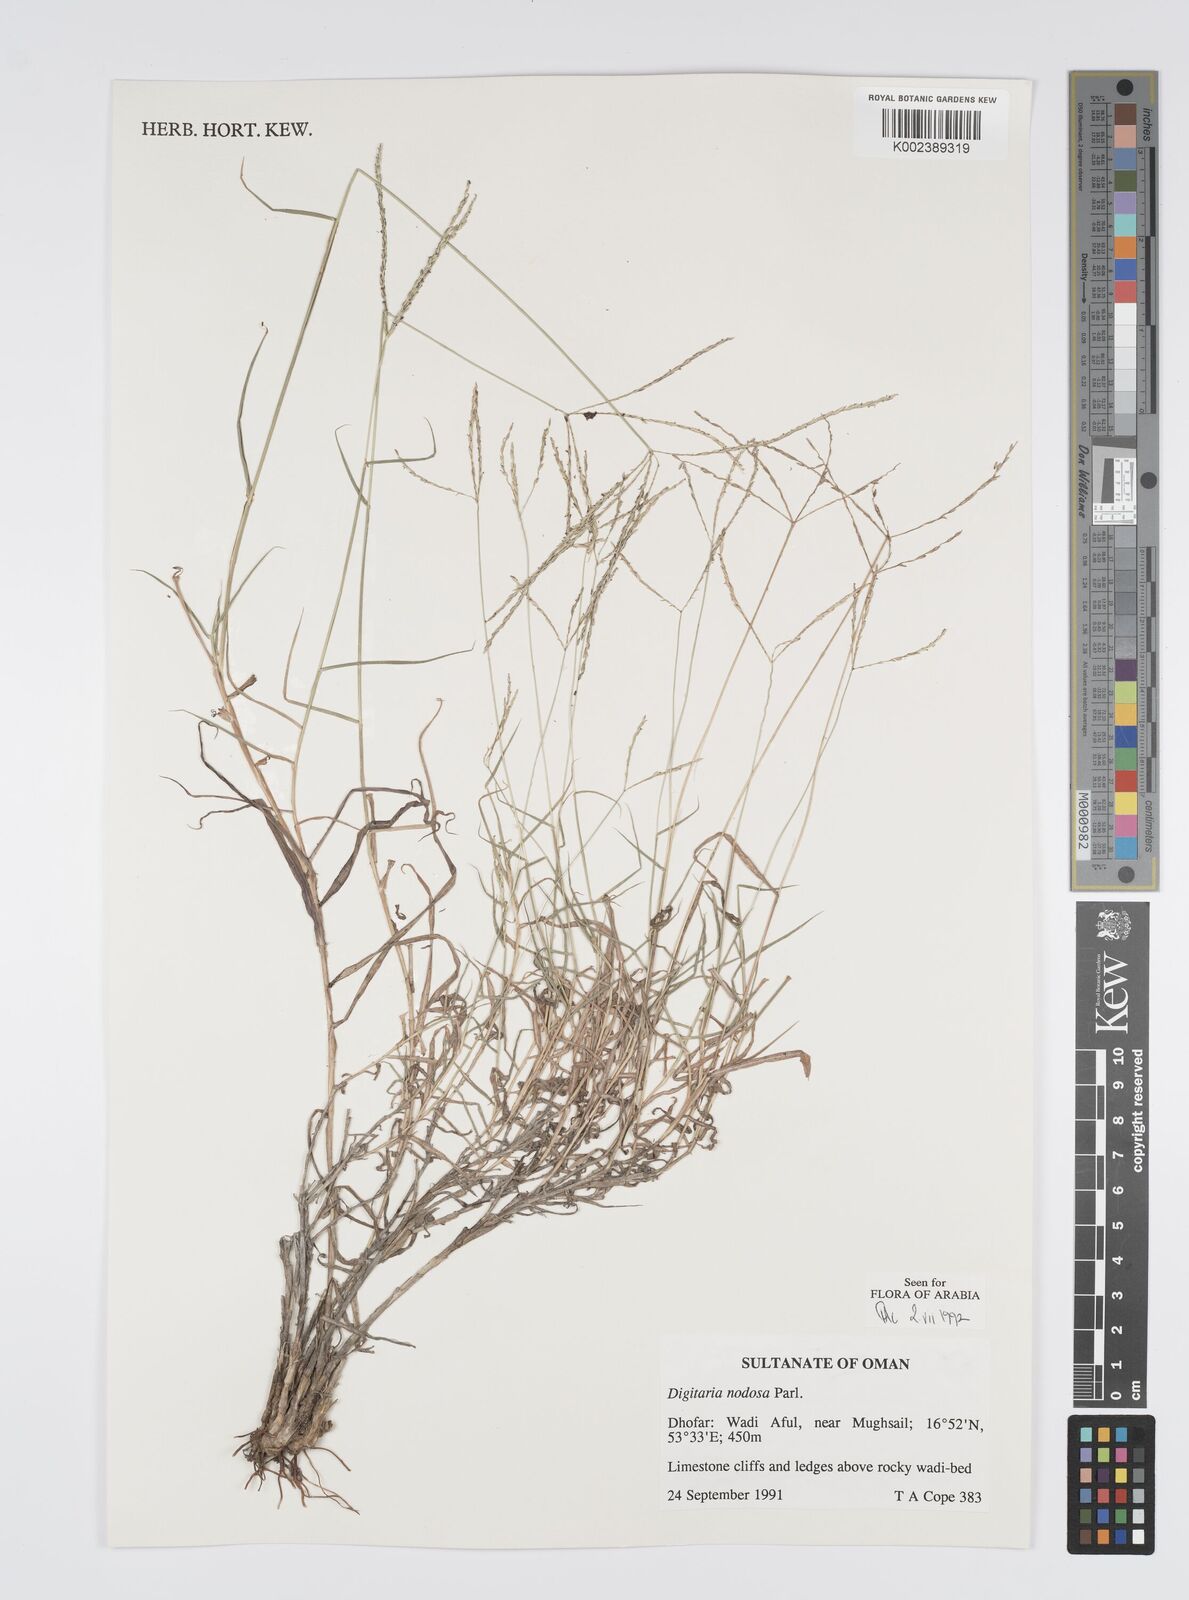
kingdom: Plantae
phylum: Tracheophyta
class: Liliopsida
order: Poales
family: Poaceae
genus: Digitaria
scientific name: Digitaria nodosa
